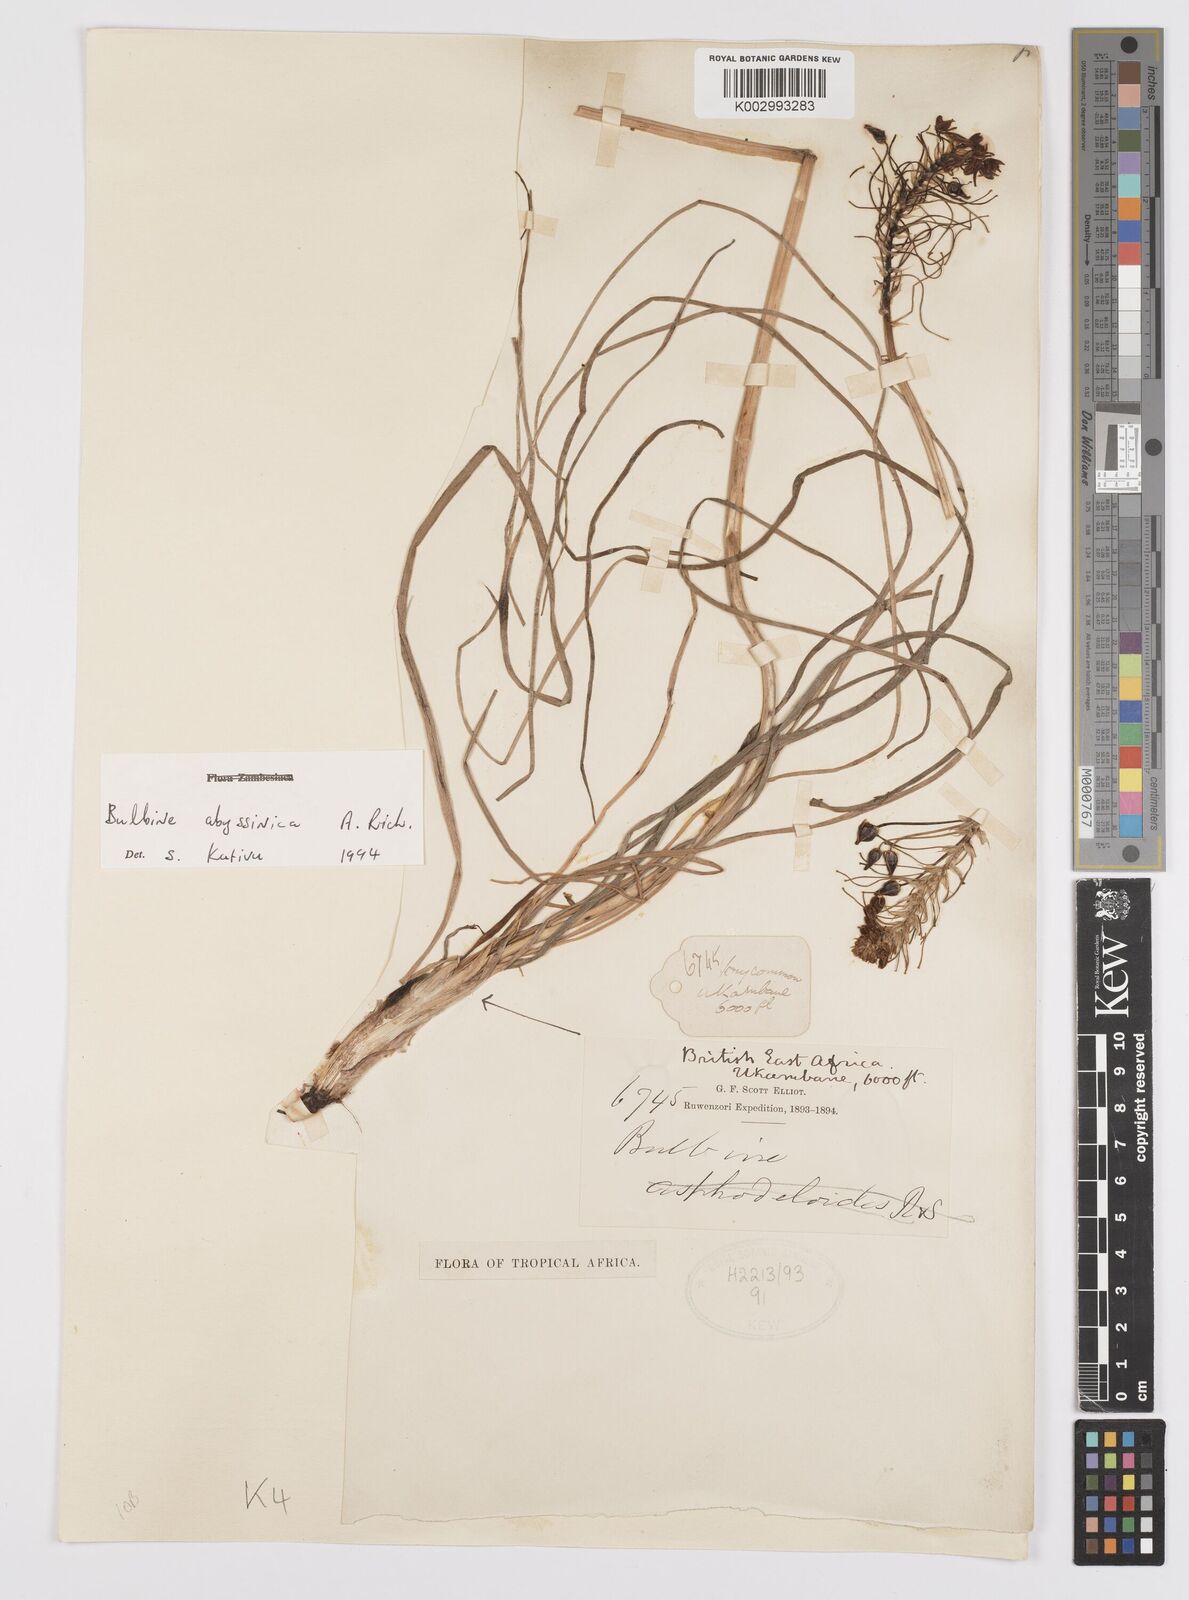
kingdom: Plantae
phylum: Tracheophyta
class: Liliopsida
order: Asparagales
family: Asphodelaceae
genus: Bulbine
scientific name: Bulbine abyssinica
